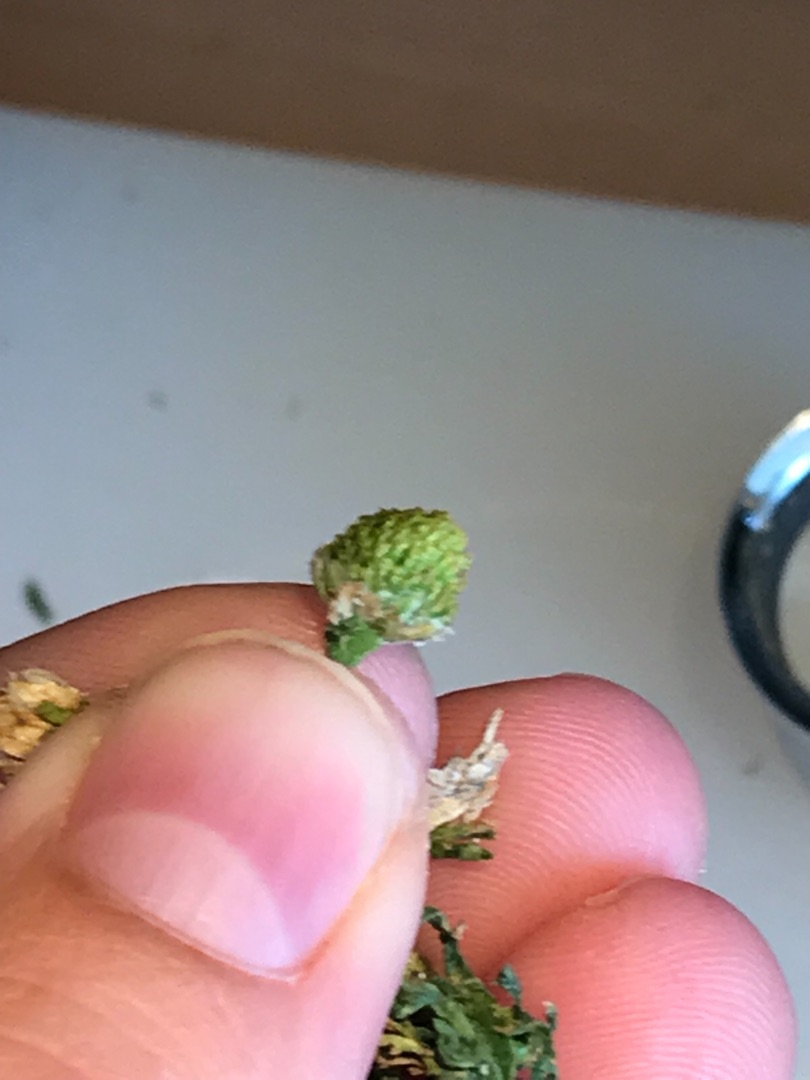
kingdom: Plantae
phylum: Tracheophyta
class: Magnoliopsida
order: Asterales
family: Asteraceae
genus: Matricaria
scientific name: Matricaria discoidea
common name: Skive-kamille
